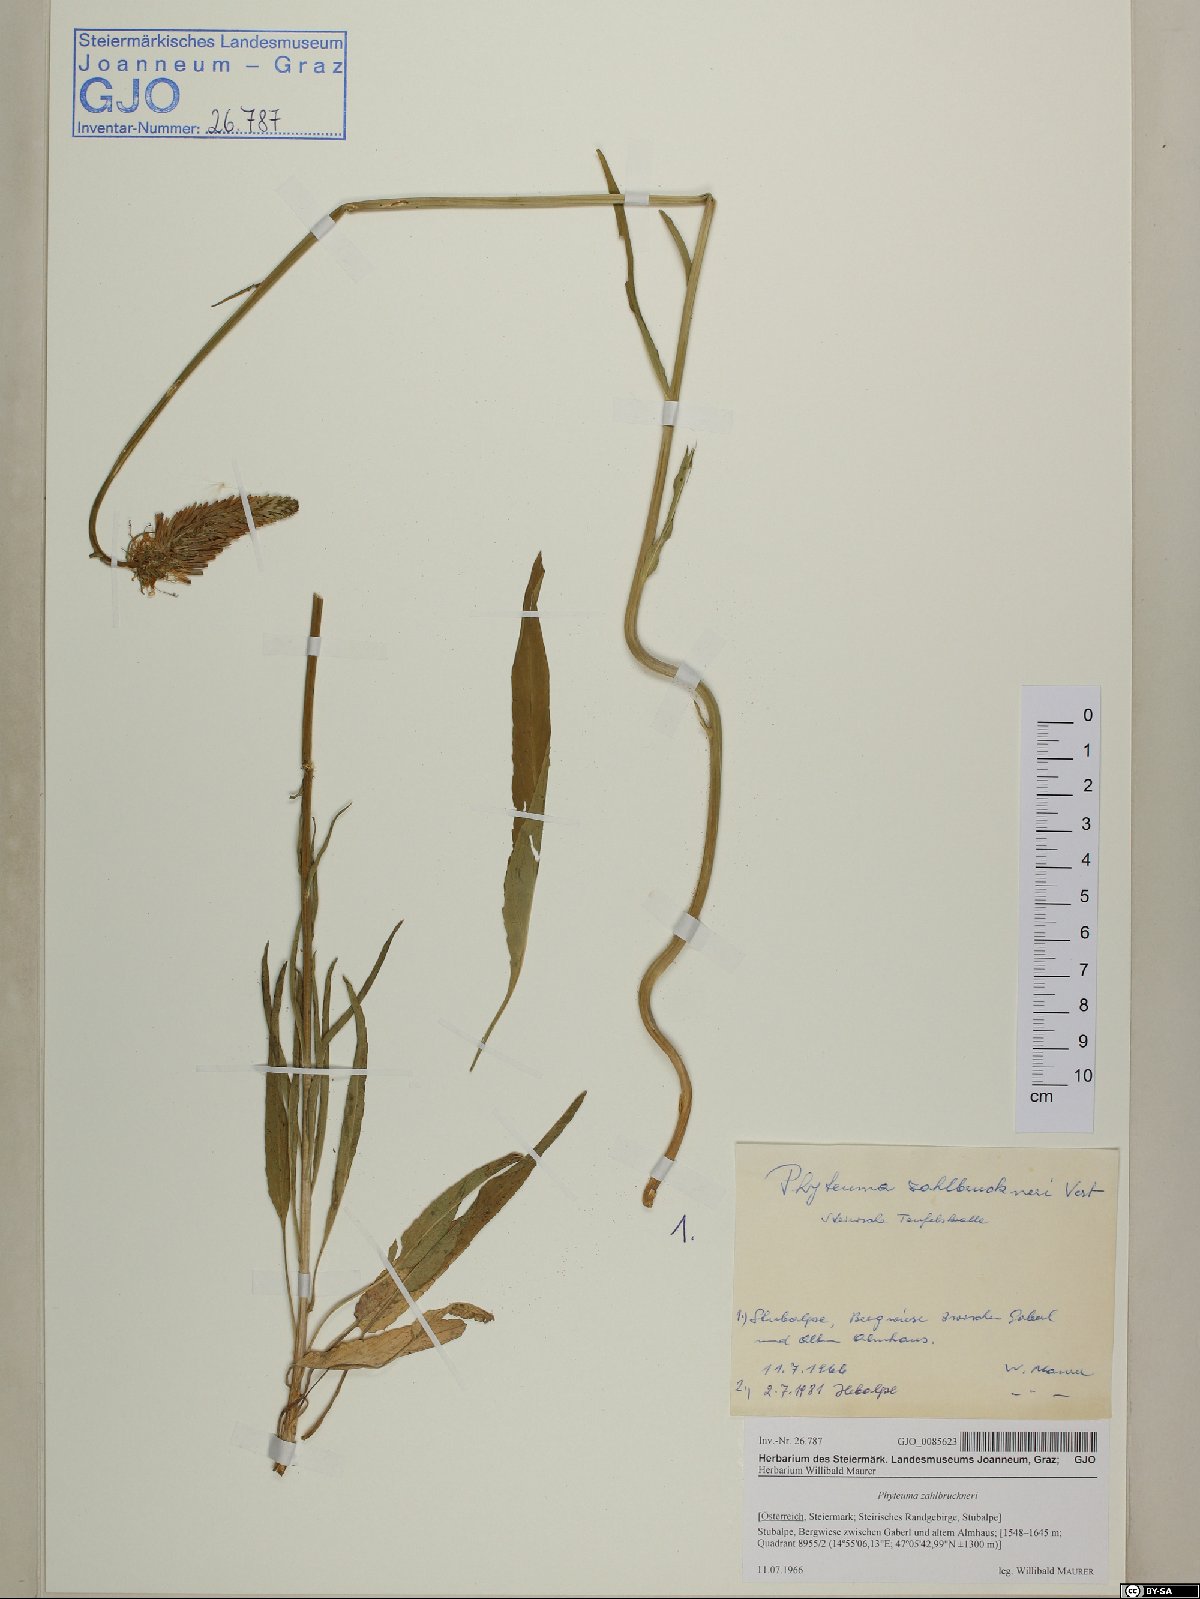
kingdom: Plantae
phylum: Tracheophyta
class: Magnoliopsida
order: Asterales
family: Campanulaceae
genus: Phyteuma
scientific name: Phyteuma persicifolium
